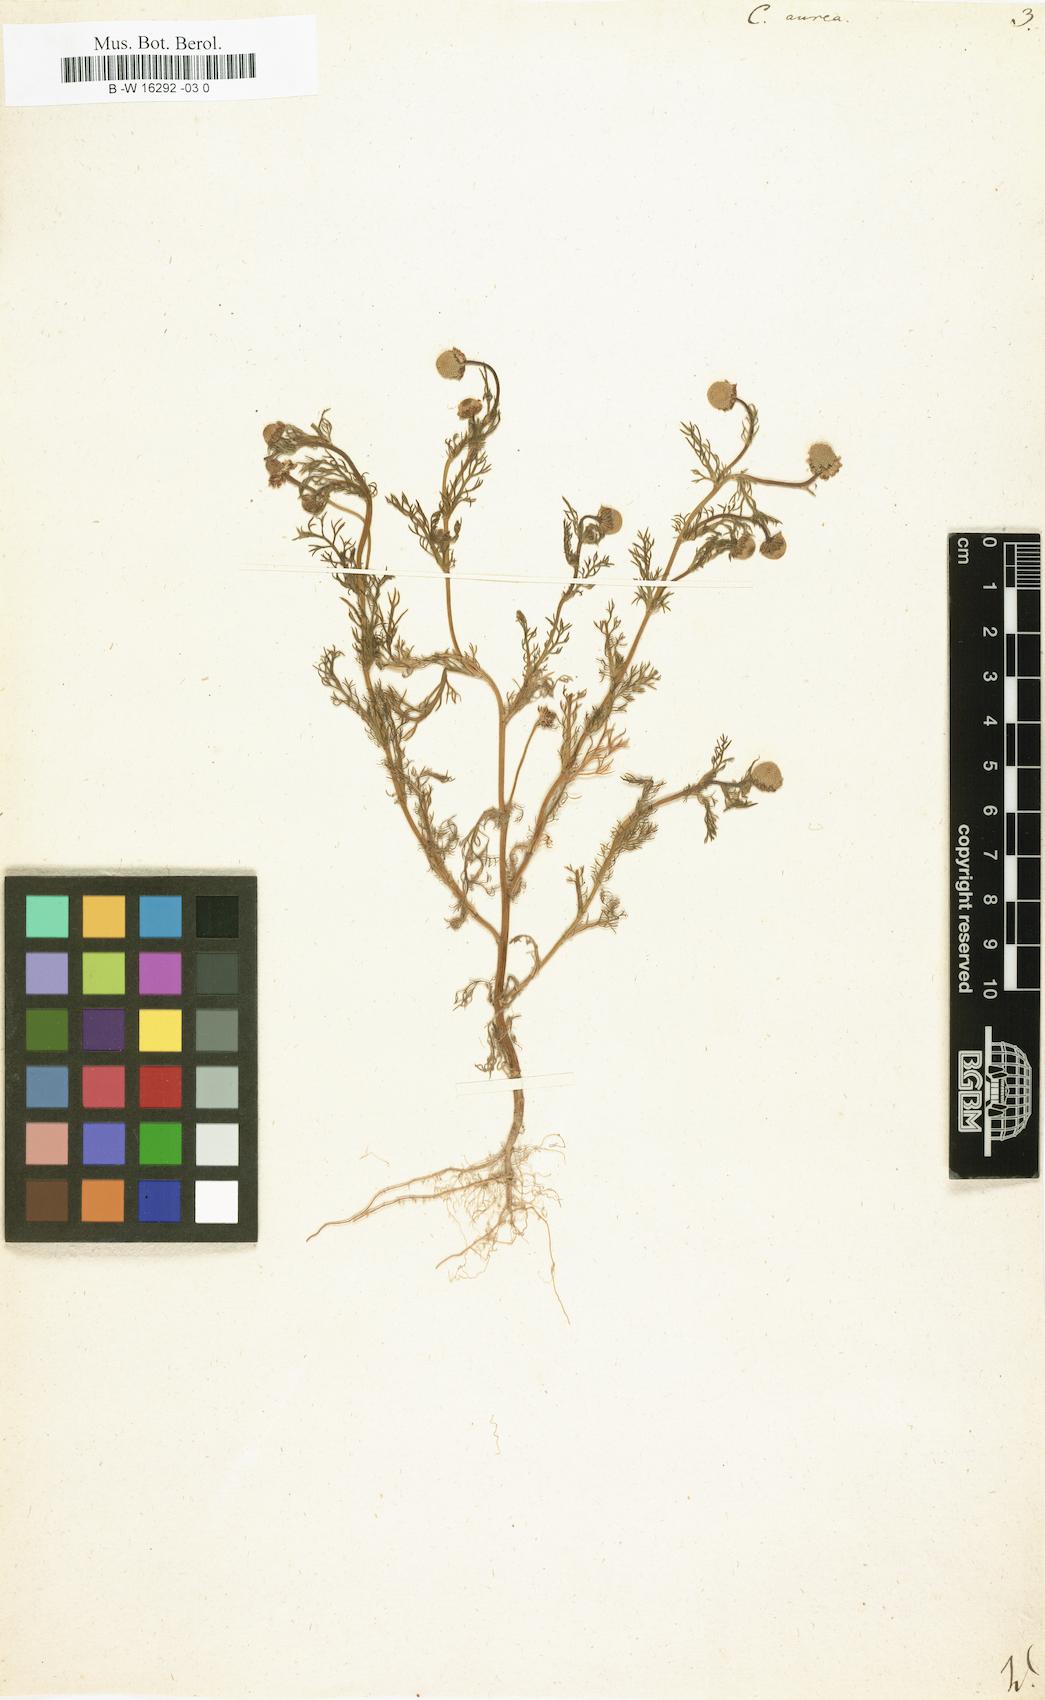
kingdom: Plantae
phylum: Tracheophyta
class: Magnoliopsida
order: Asterales
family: Asteraceae
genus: Cotula
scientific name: Cotula aurea
